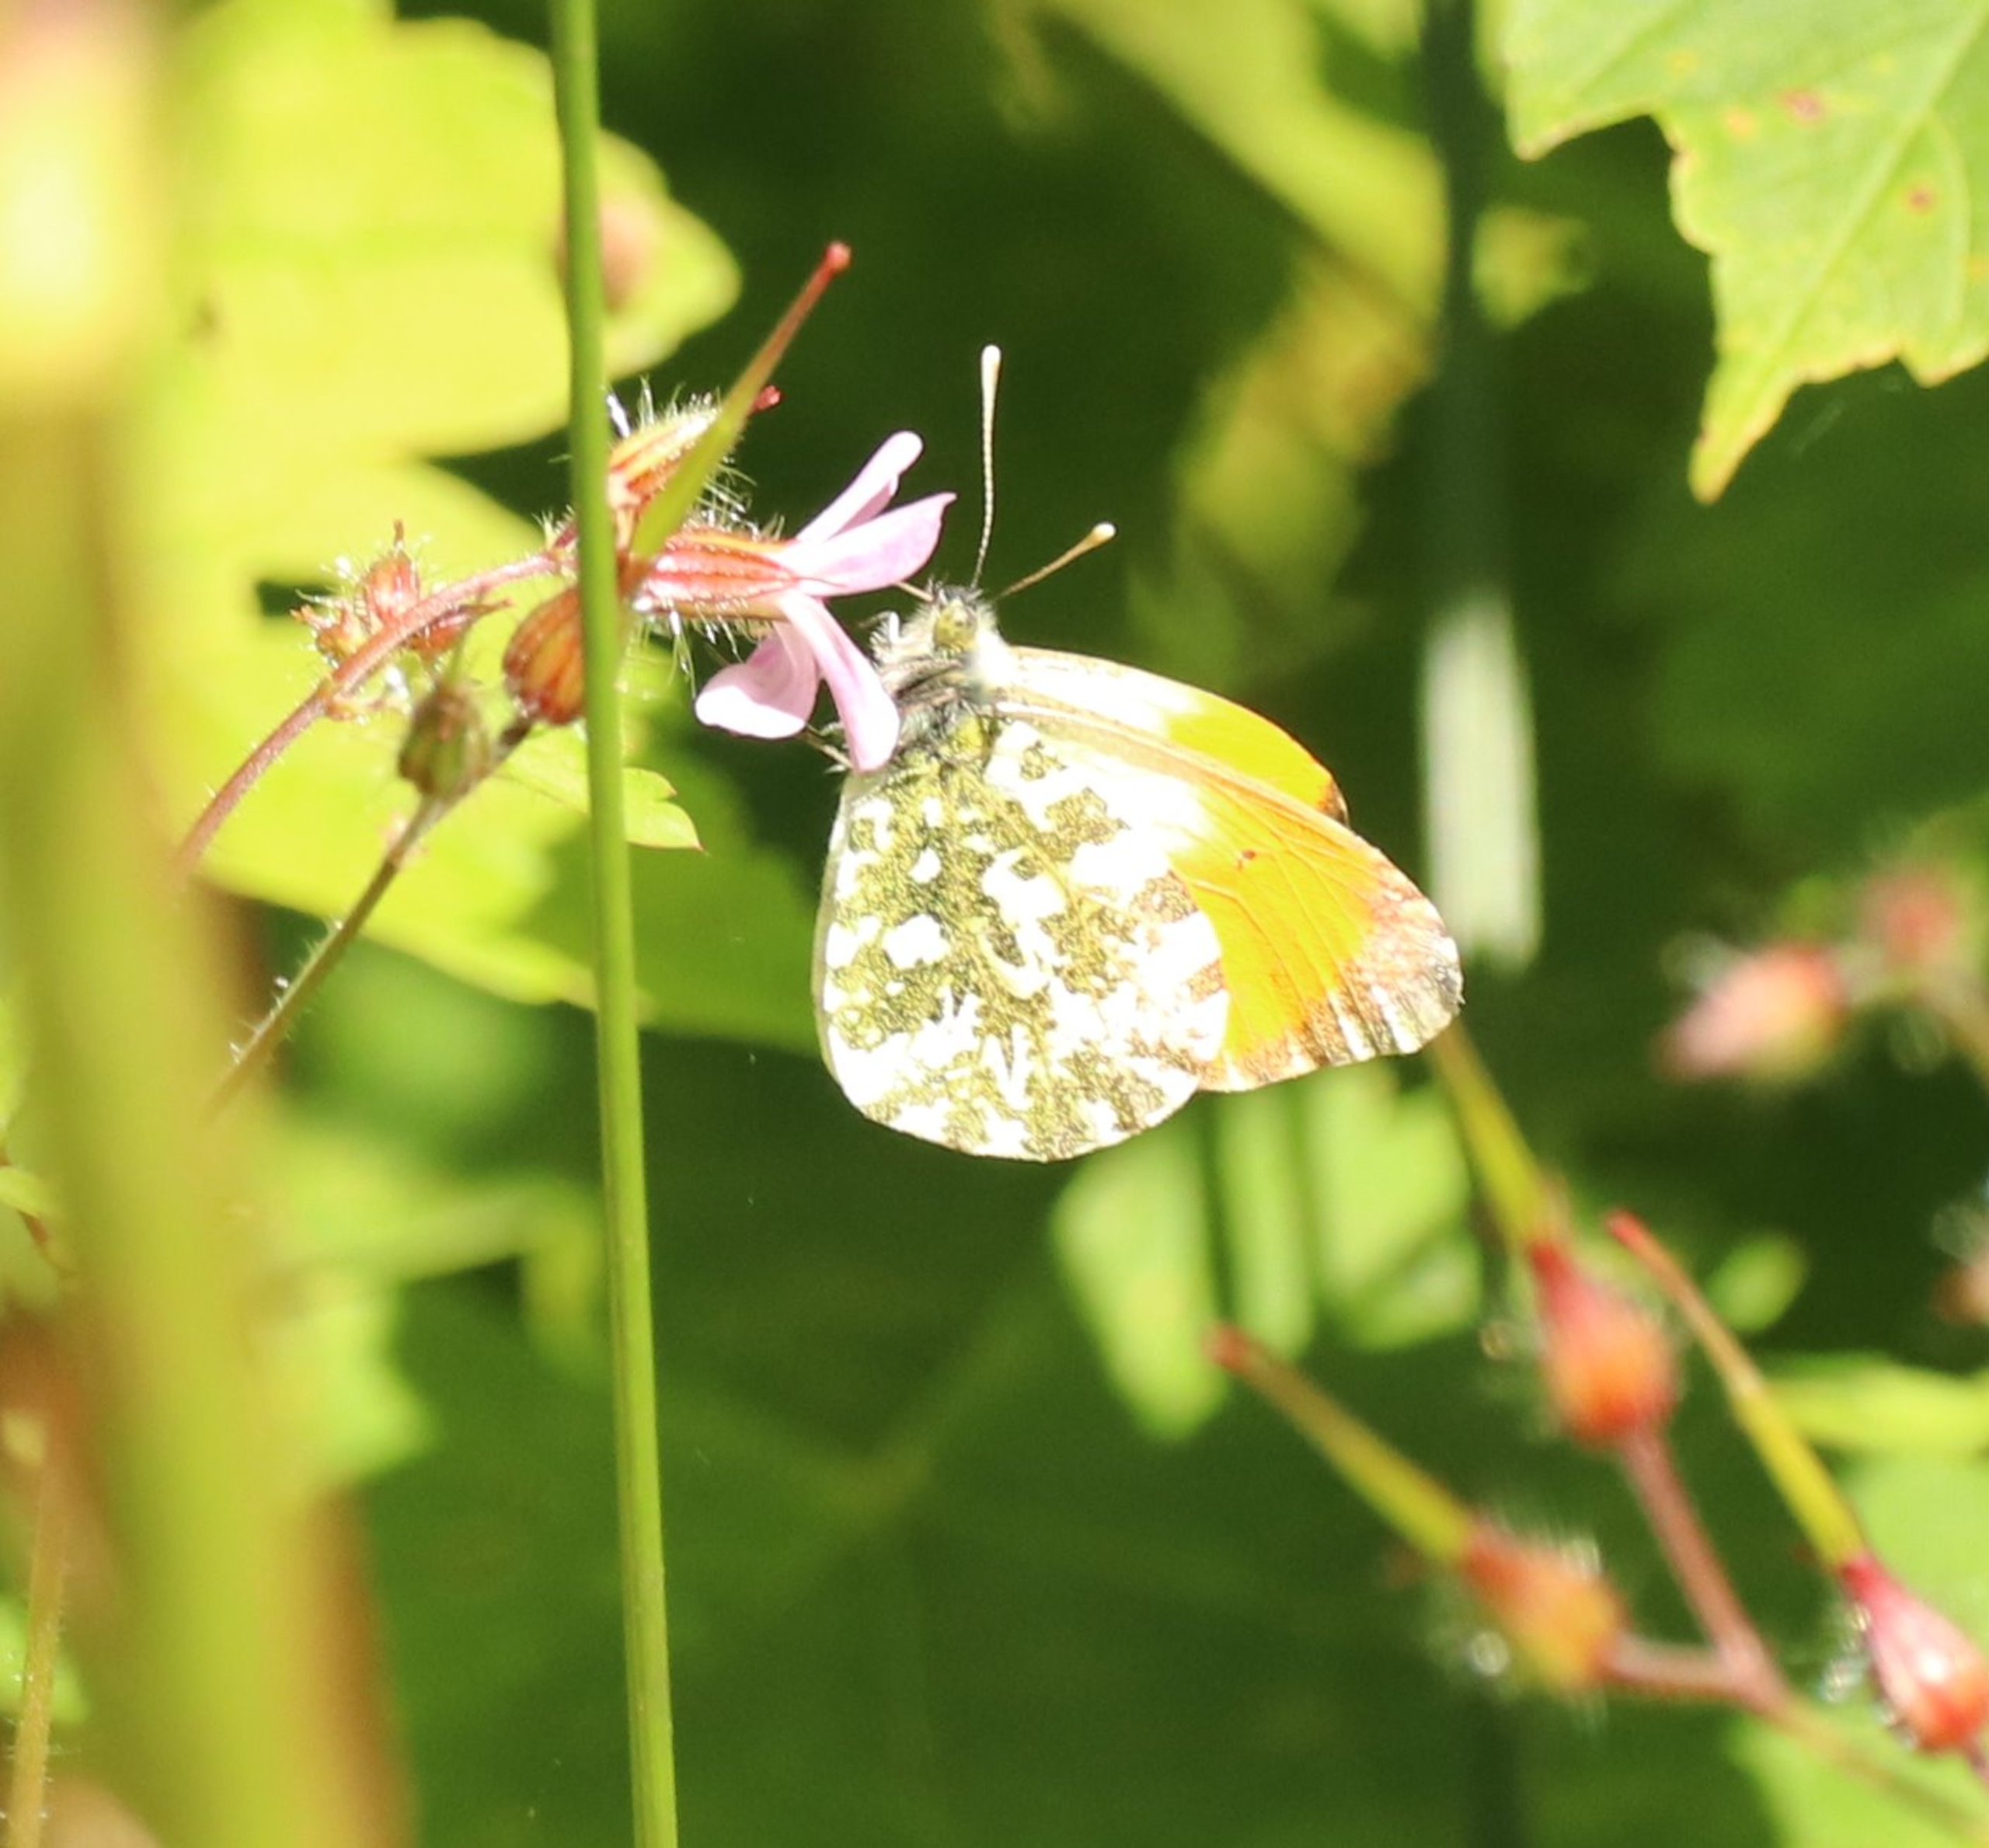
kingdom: Animalia
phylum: Arthropoda
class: Insecta
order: Lepidoptera
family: Pieridae
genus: Anthocharis
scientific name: Anthocharis cardamines
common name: Aurora
